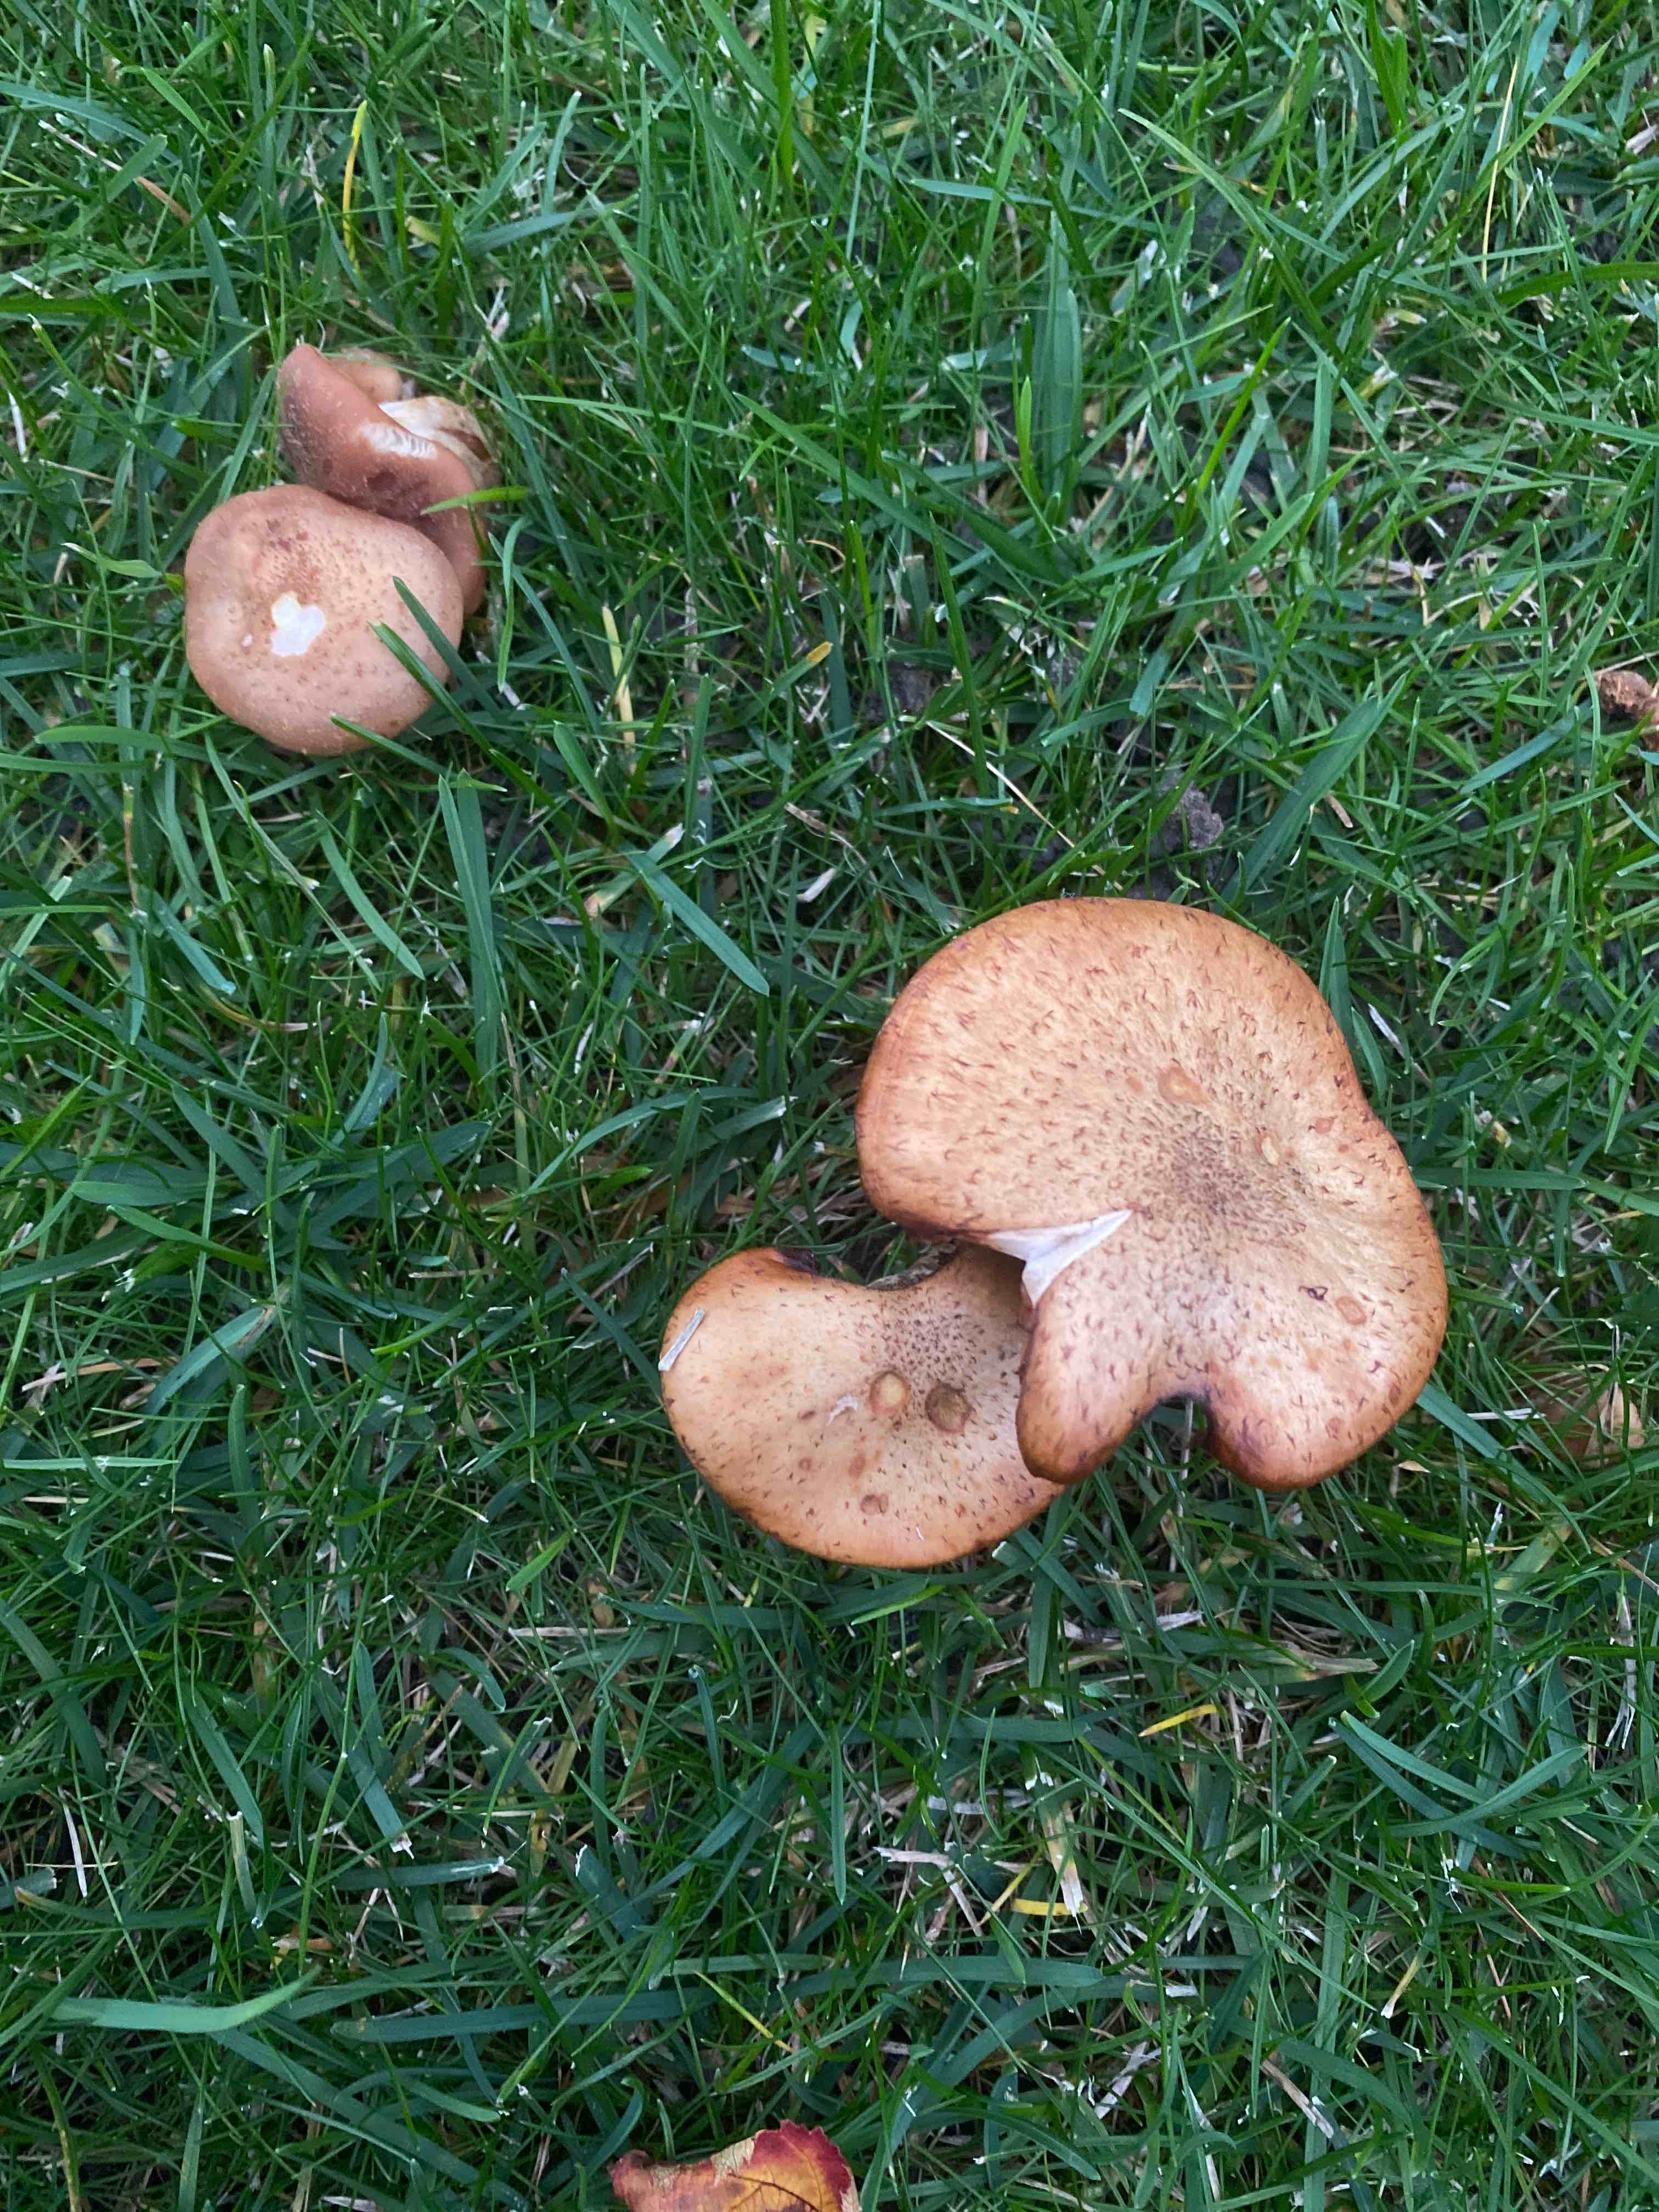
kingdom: Fungi
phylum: Basidiomycota
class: Agaricomycetes
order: Agaricales
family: Physalacriaceae
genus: Armillaria
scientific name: Armillaria
